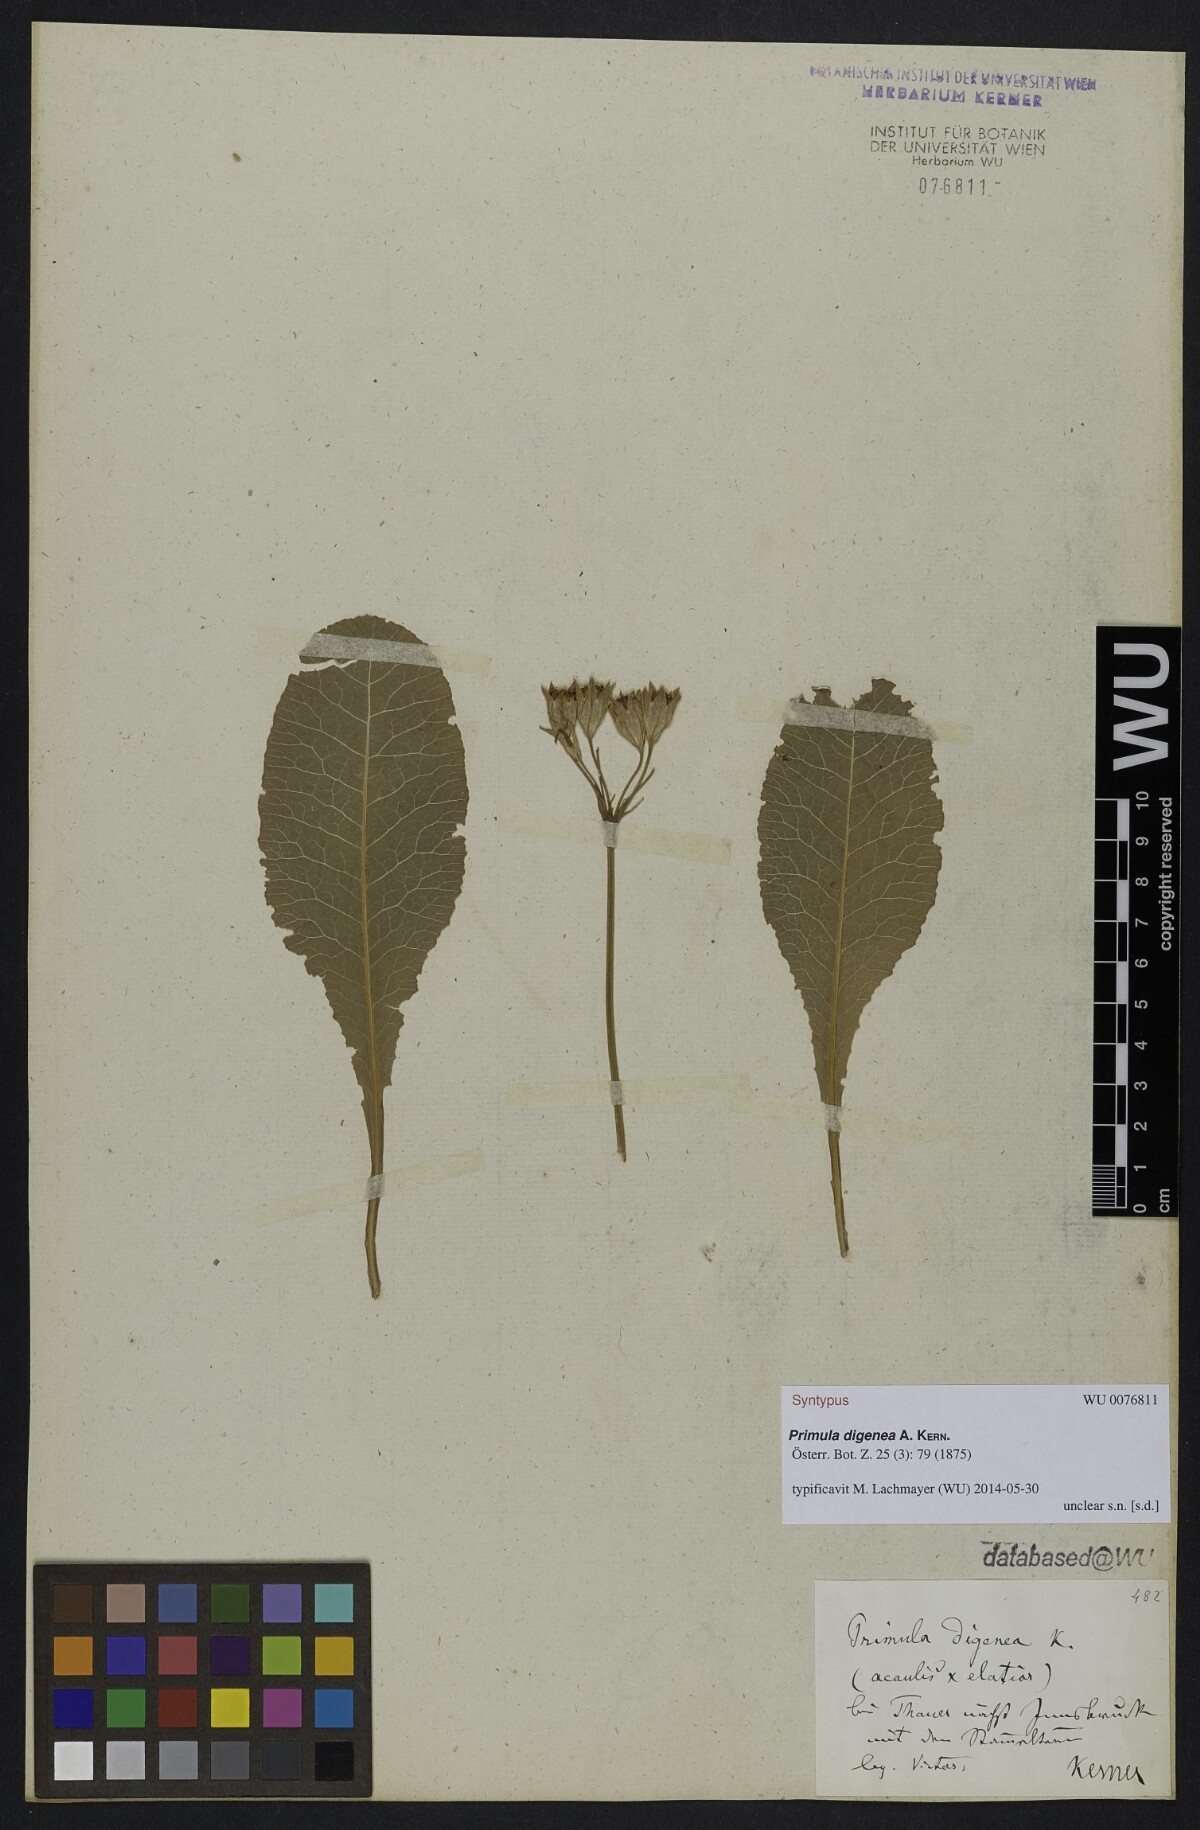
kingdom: Plantae
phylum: Tracheophyta
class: Magnoliopsida
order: Ericales
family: Primulaceae
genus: Primula
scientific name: Primula digenea
